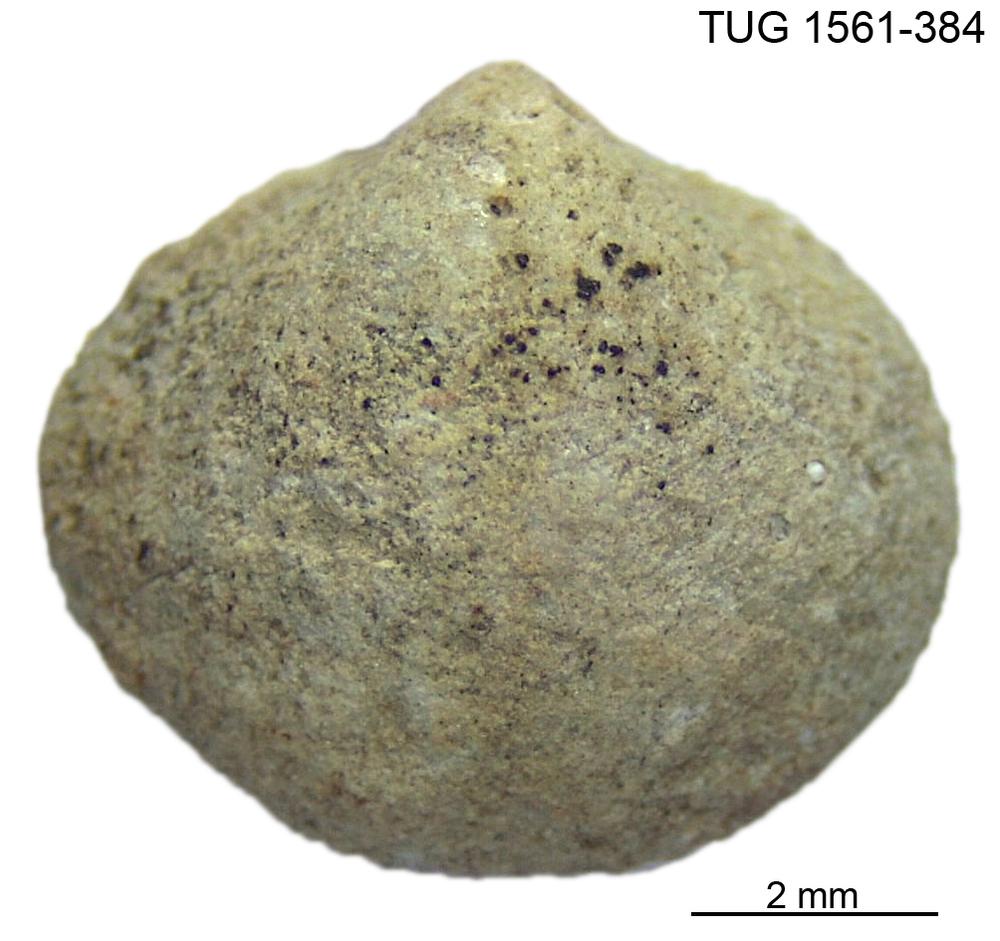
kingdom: Animalia
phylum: Brachiopoda
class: Rhynchonellata
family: Nucleospiridae
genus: Nucleospira
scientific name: Nucleospira Spirifer pisum
